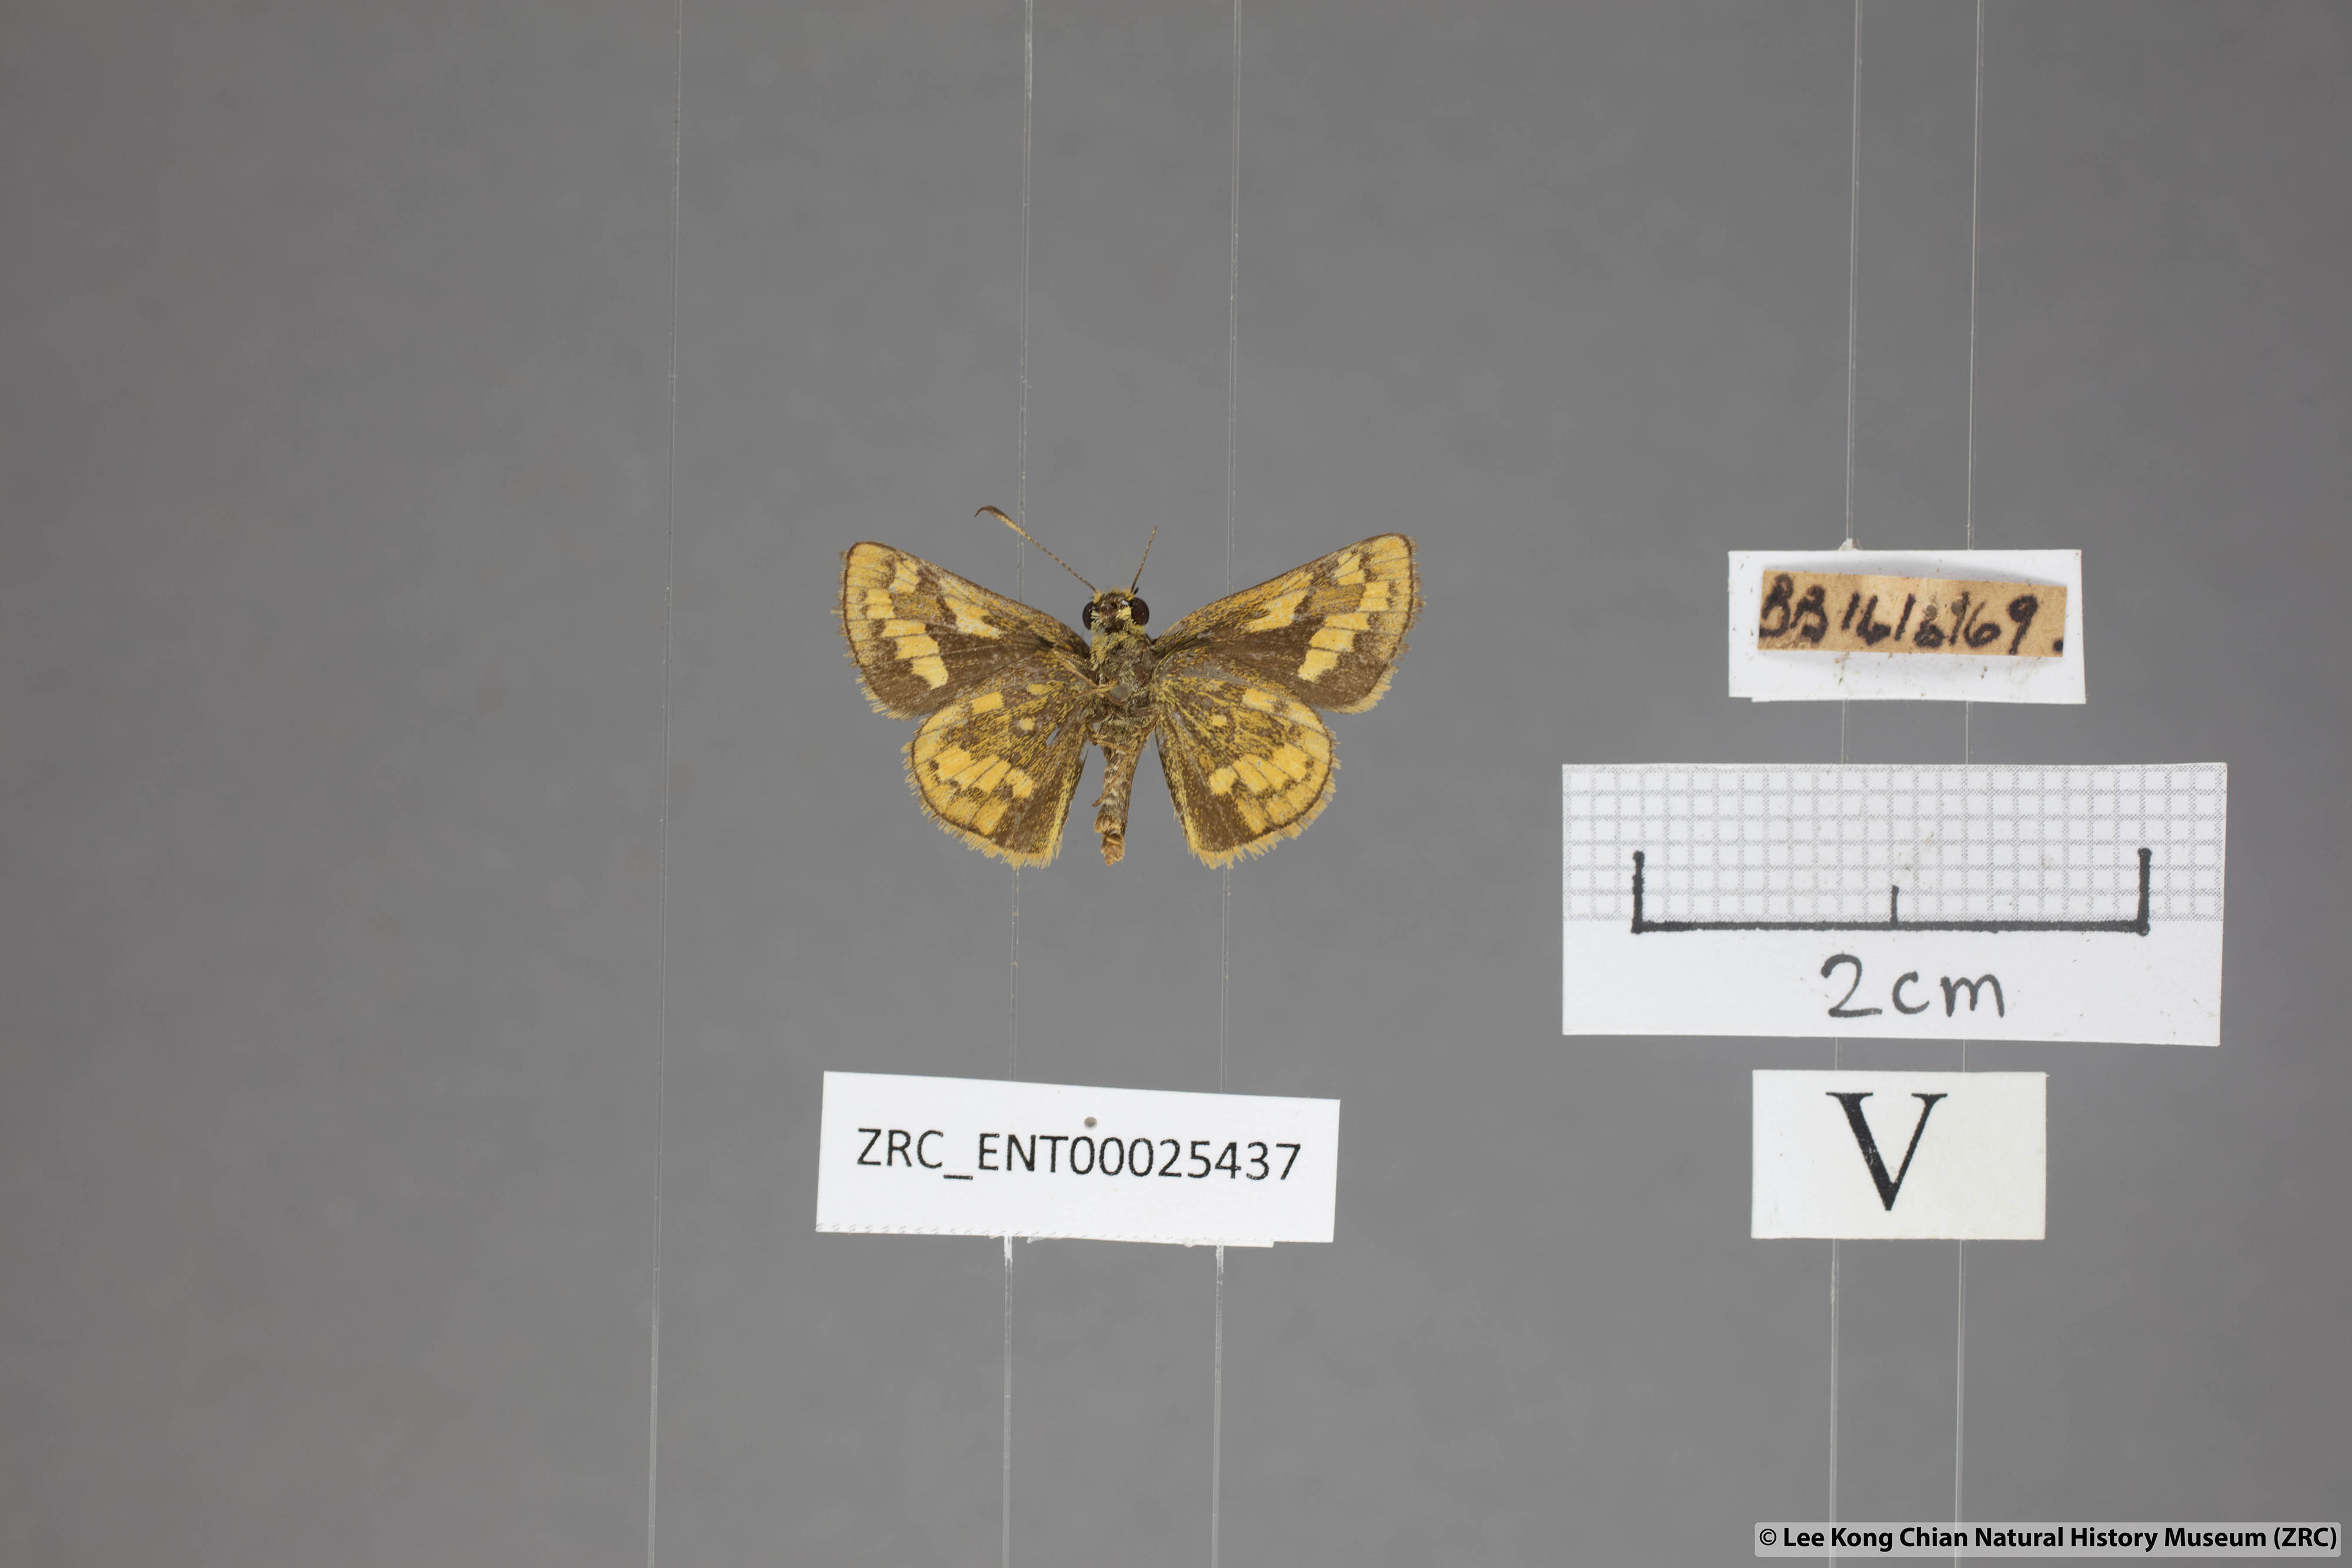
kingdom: Animalia
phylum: Arthropoda
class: Insecta
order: Lepidoptera
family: Hesperiidae
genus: Potanthus
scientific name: Potanthus omaha
